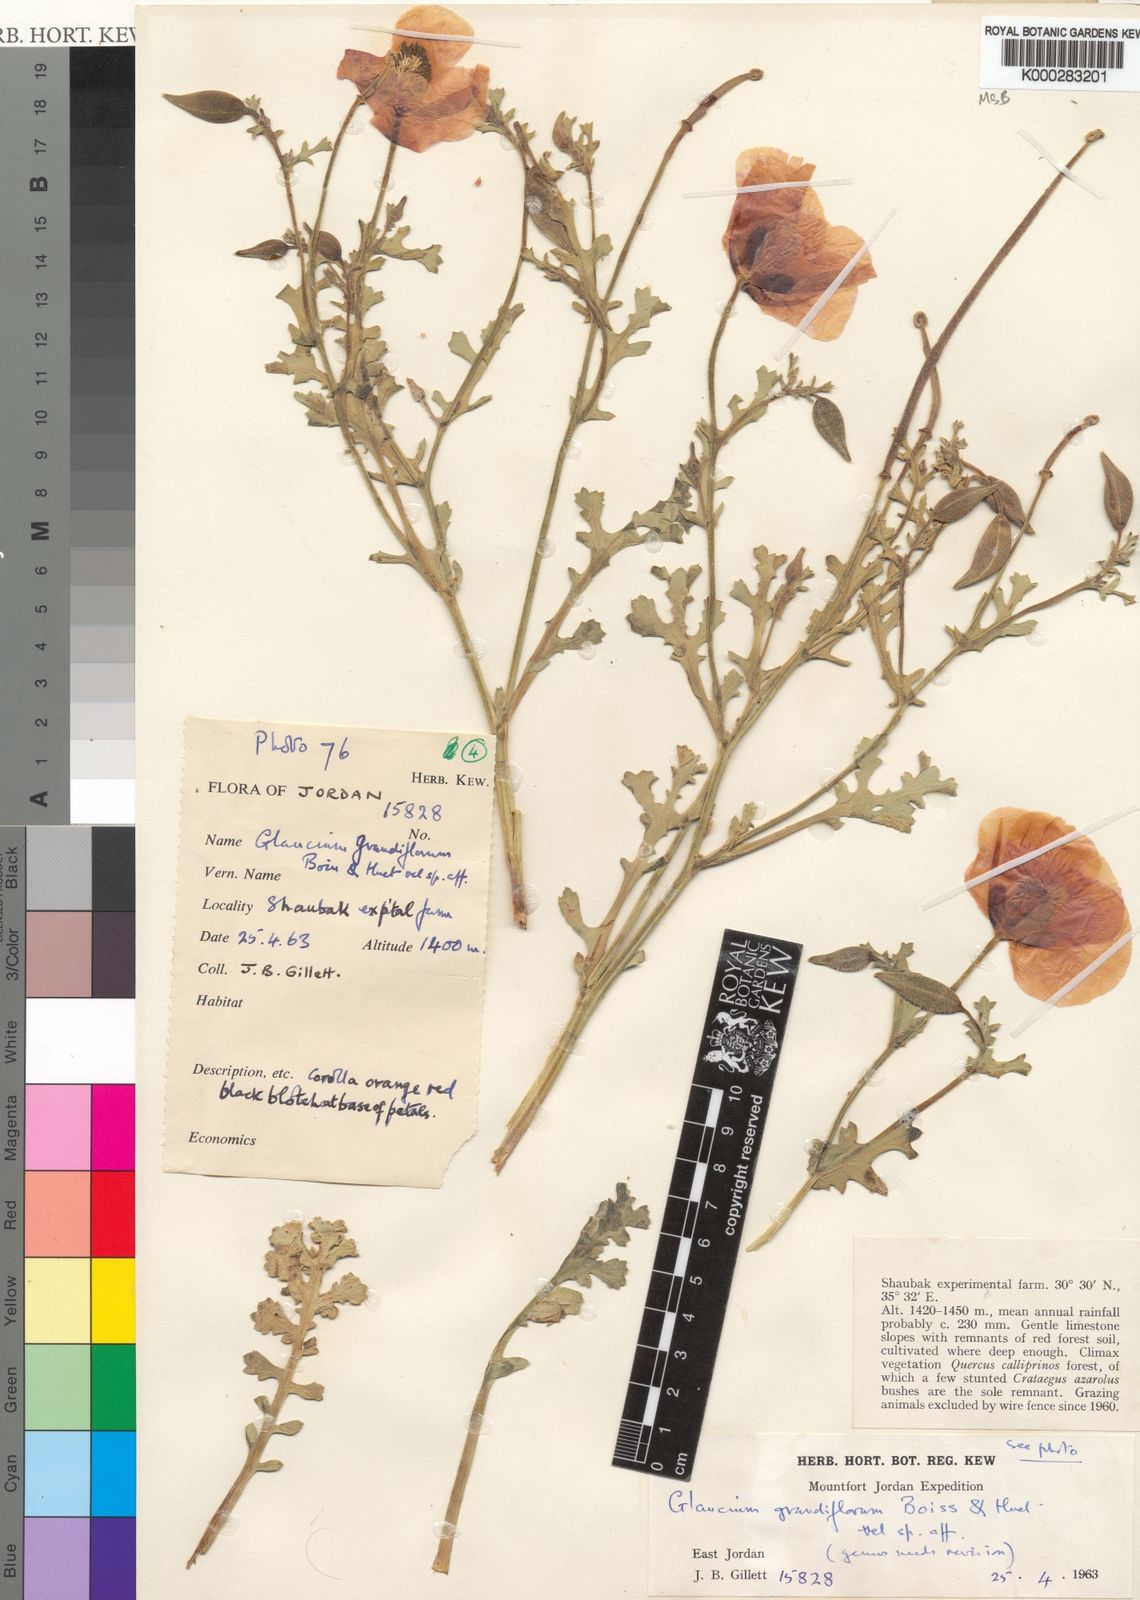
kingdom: Plantae
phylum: Tracheophyta
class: Magnoliopsida
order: Ranunculales
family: Papaveraceae
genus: Glaucium
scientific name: Glaucium grandiflorum
